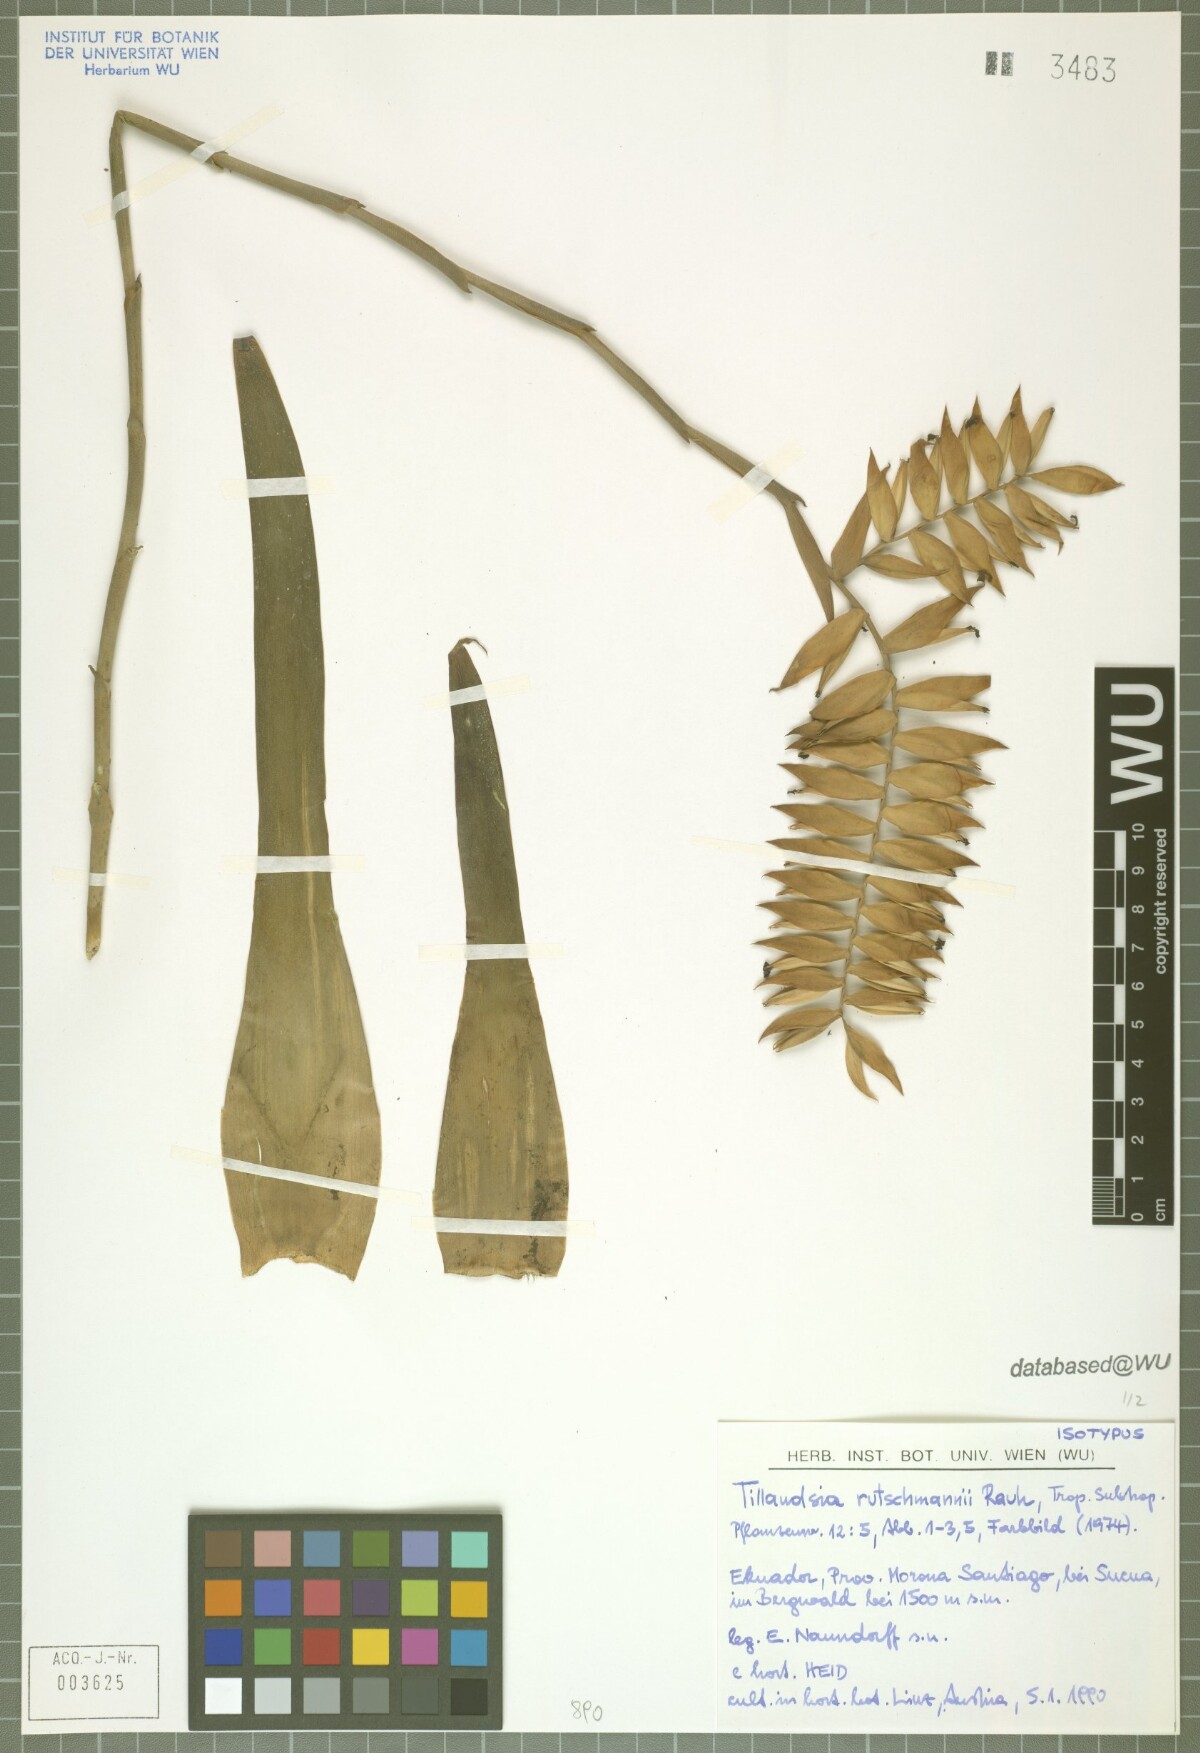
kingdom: Plantae
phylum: Tracheophyta
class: Liliopsida
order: Poales
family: Bromeliaceae
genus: Racinaea
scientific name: Racinaea dyeriana
